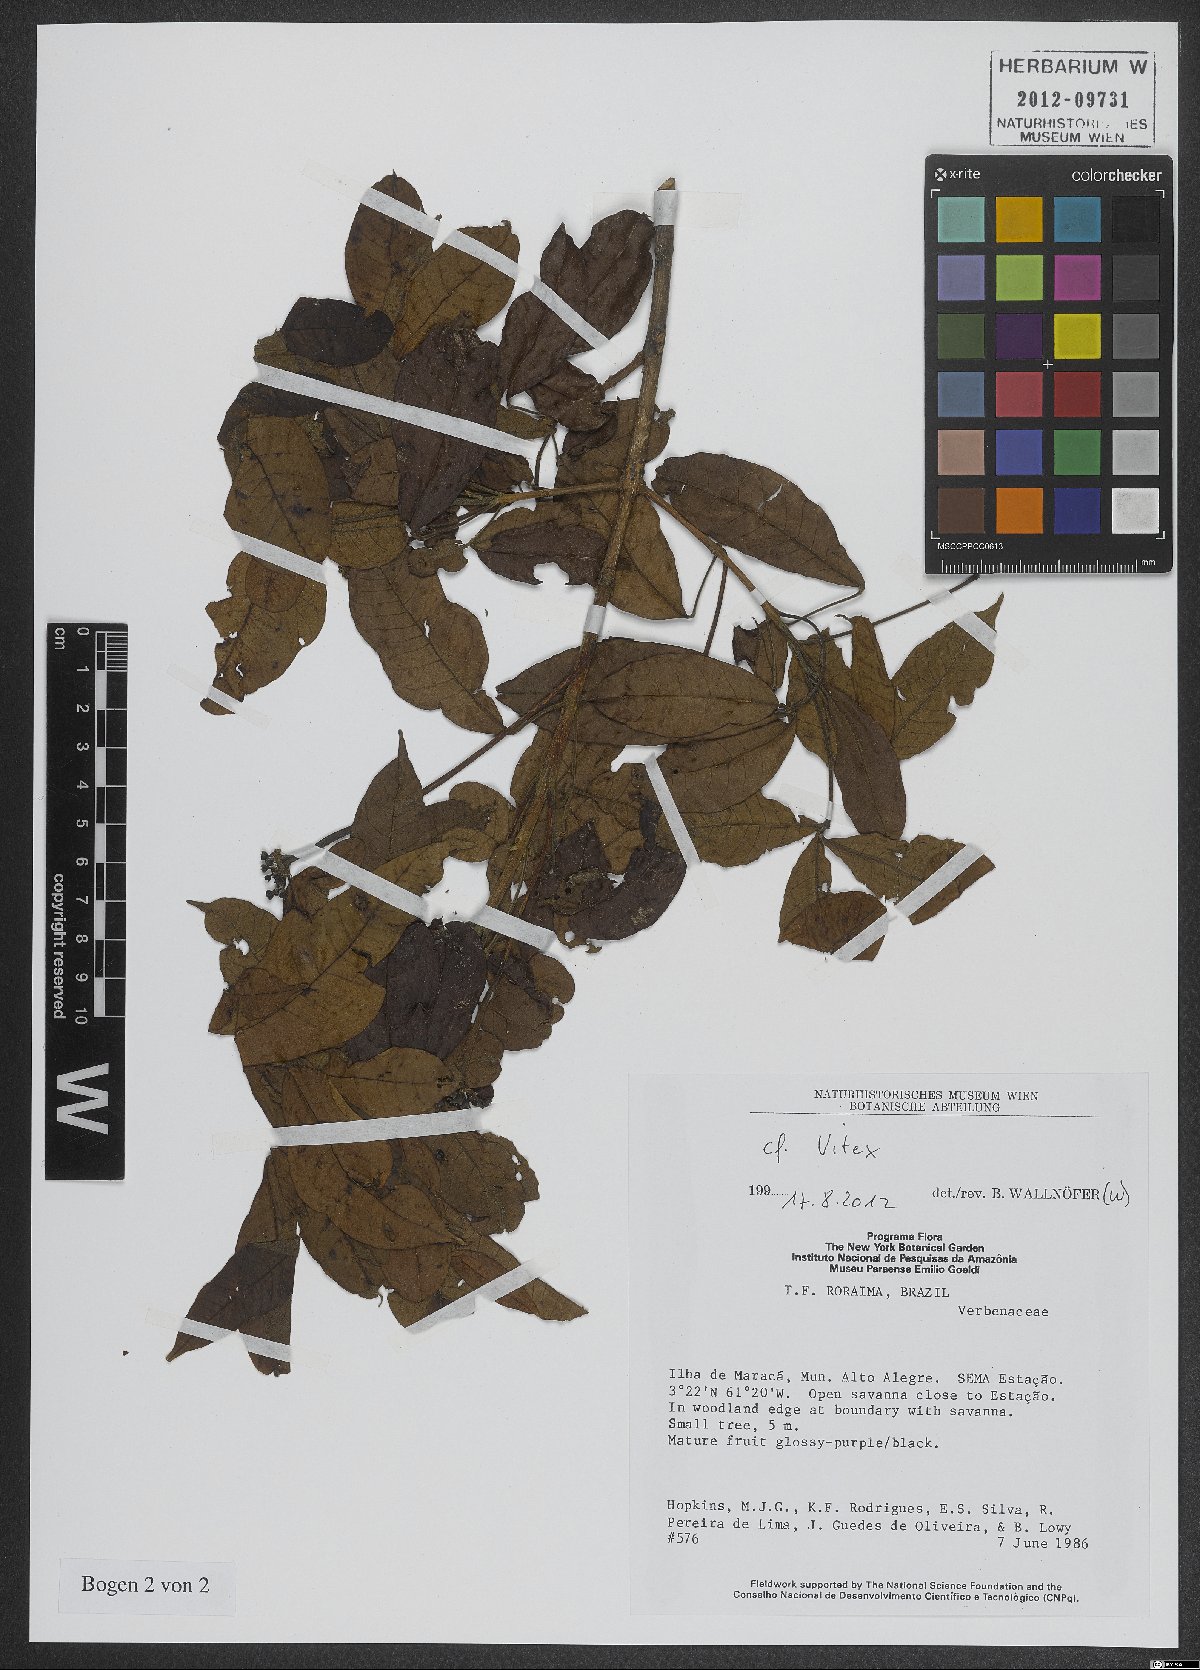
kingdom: Plantae
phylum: Tracheophyta
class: Magnoliopsida
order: Lamiales
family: Lamiaceae
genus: Vitex
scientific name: Vitex
